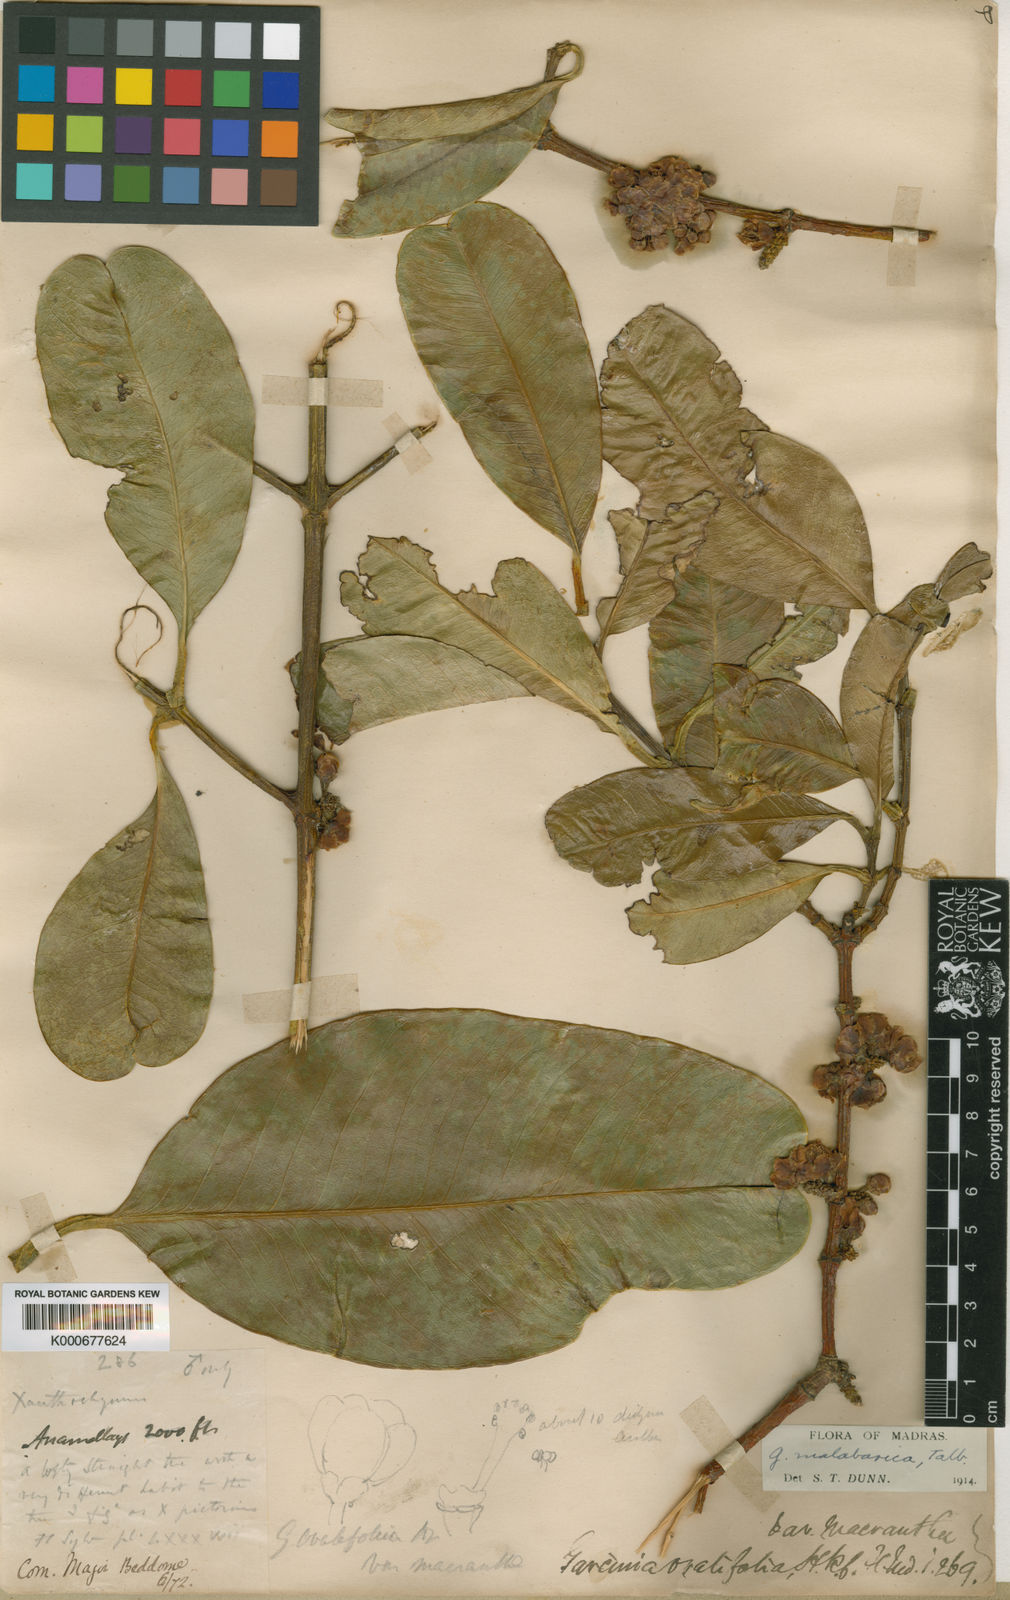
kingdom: Plantae
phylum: Tracheophyta
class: Magnoliopsida
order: Malpighiales
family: Clusiaceae
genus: Garcinia
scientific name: Garcinia ovalifolia
